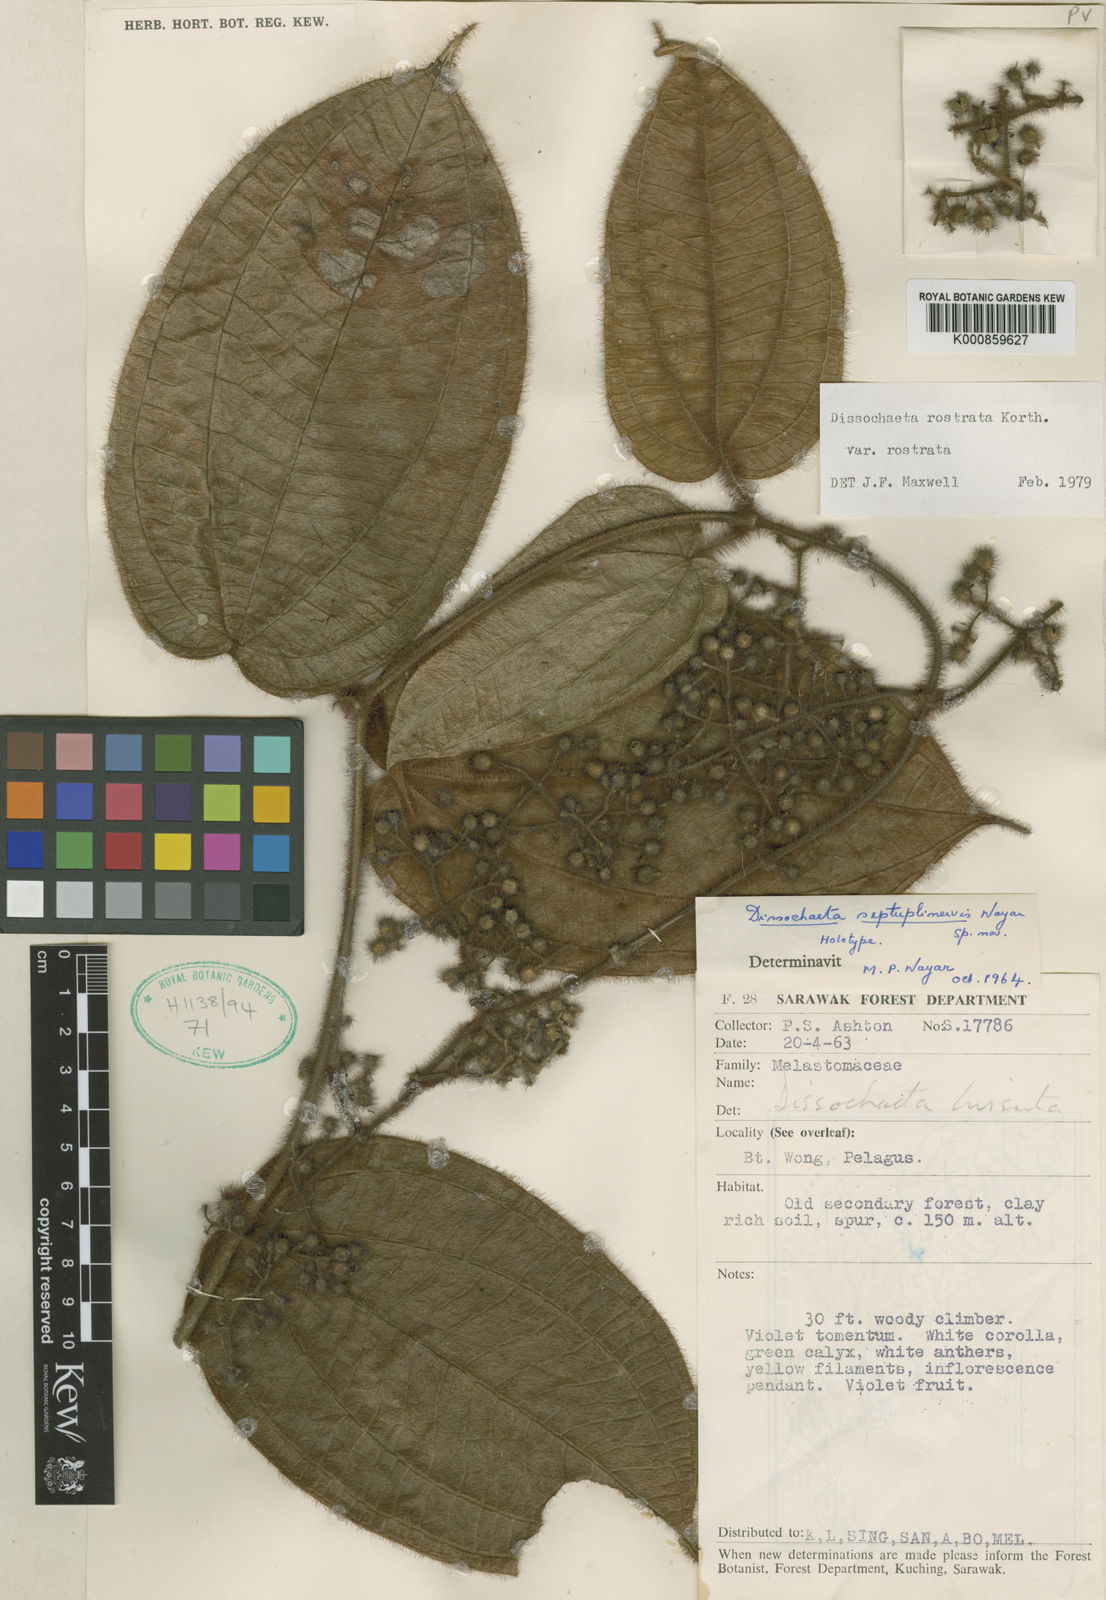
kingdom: Plantae
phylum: Tracheophyta
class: Magnoliopsida
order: Myrtales
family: Melastomataceae
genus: Macrolenes
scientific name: Macrolenes rostrata
